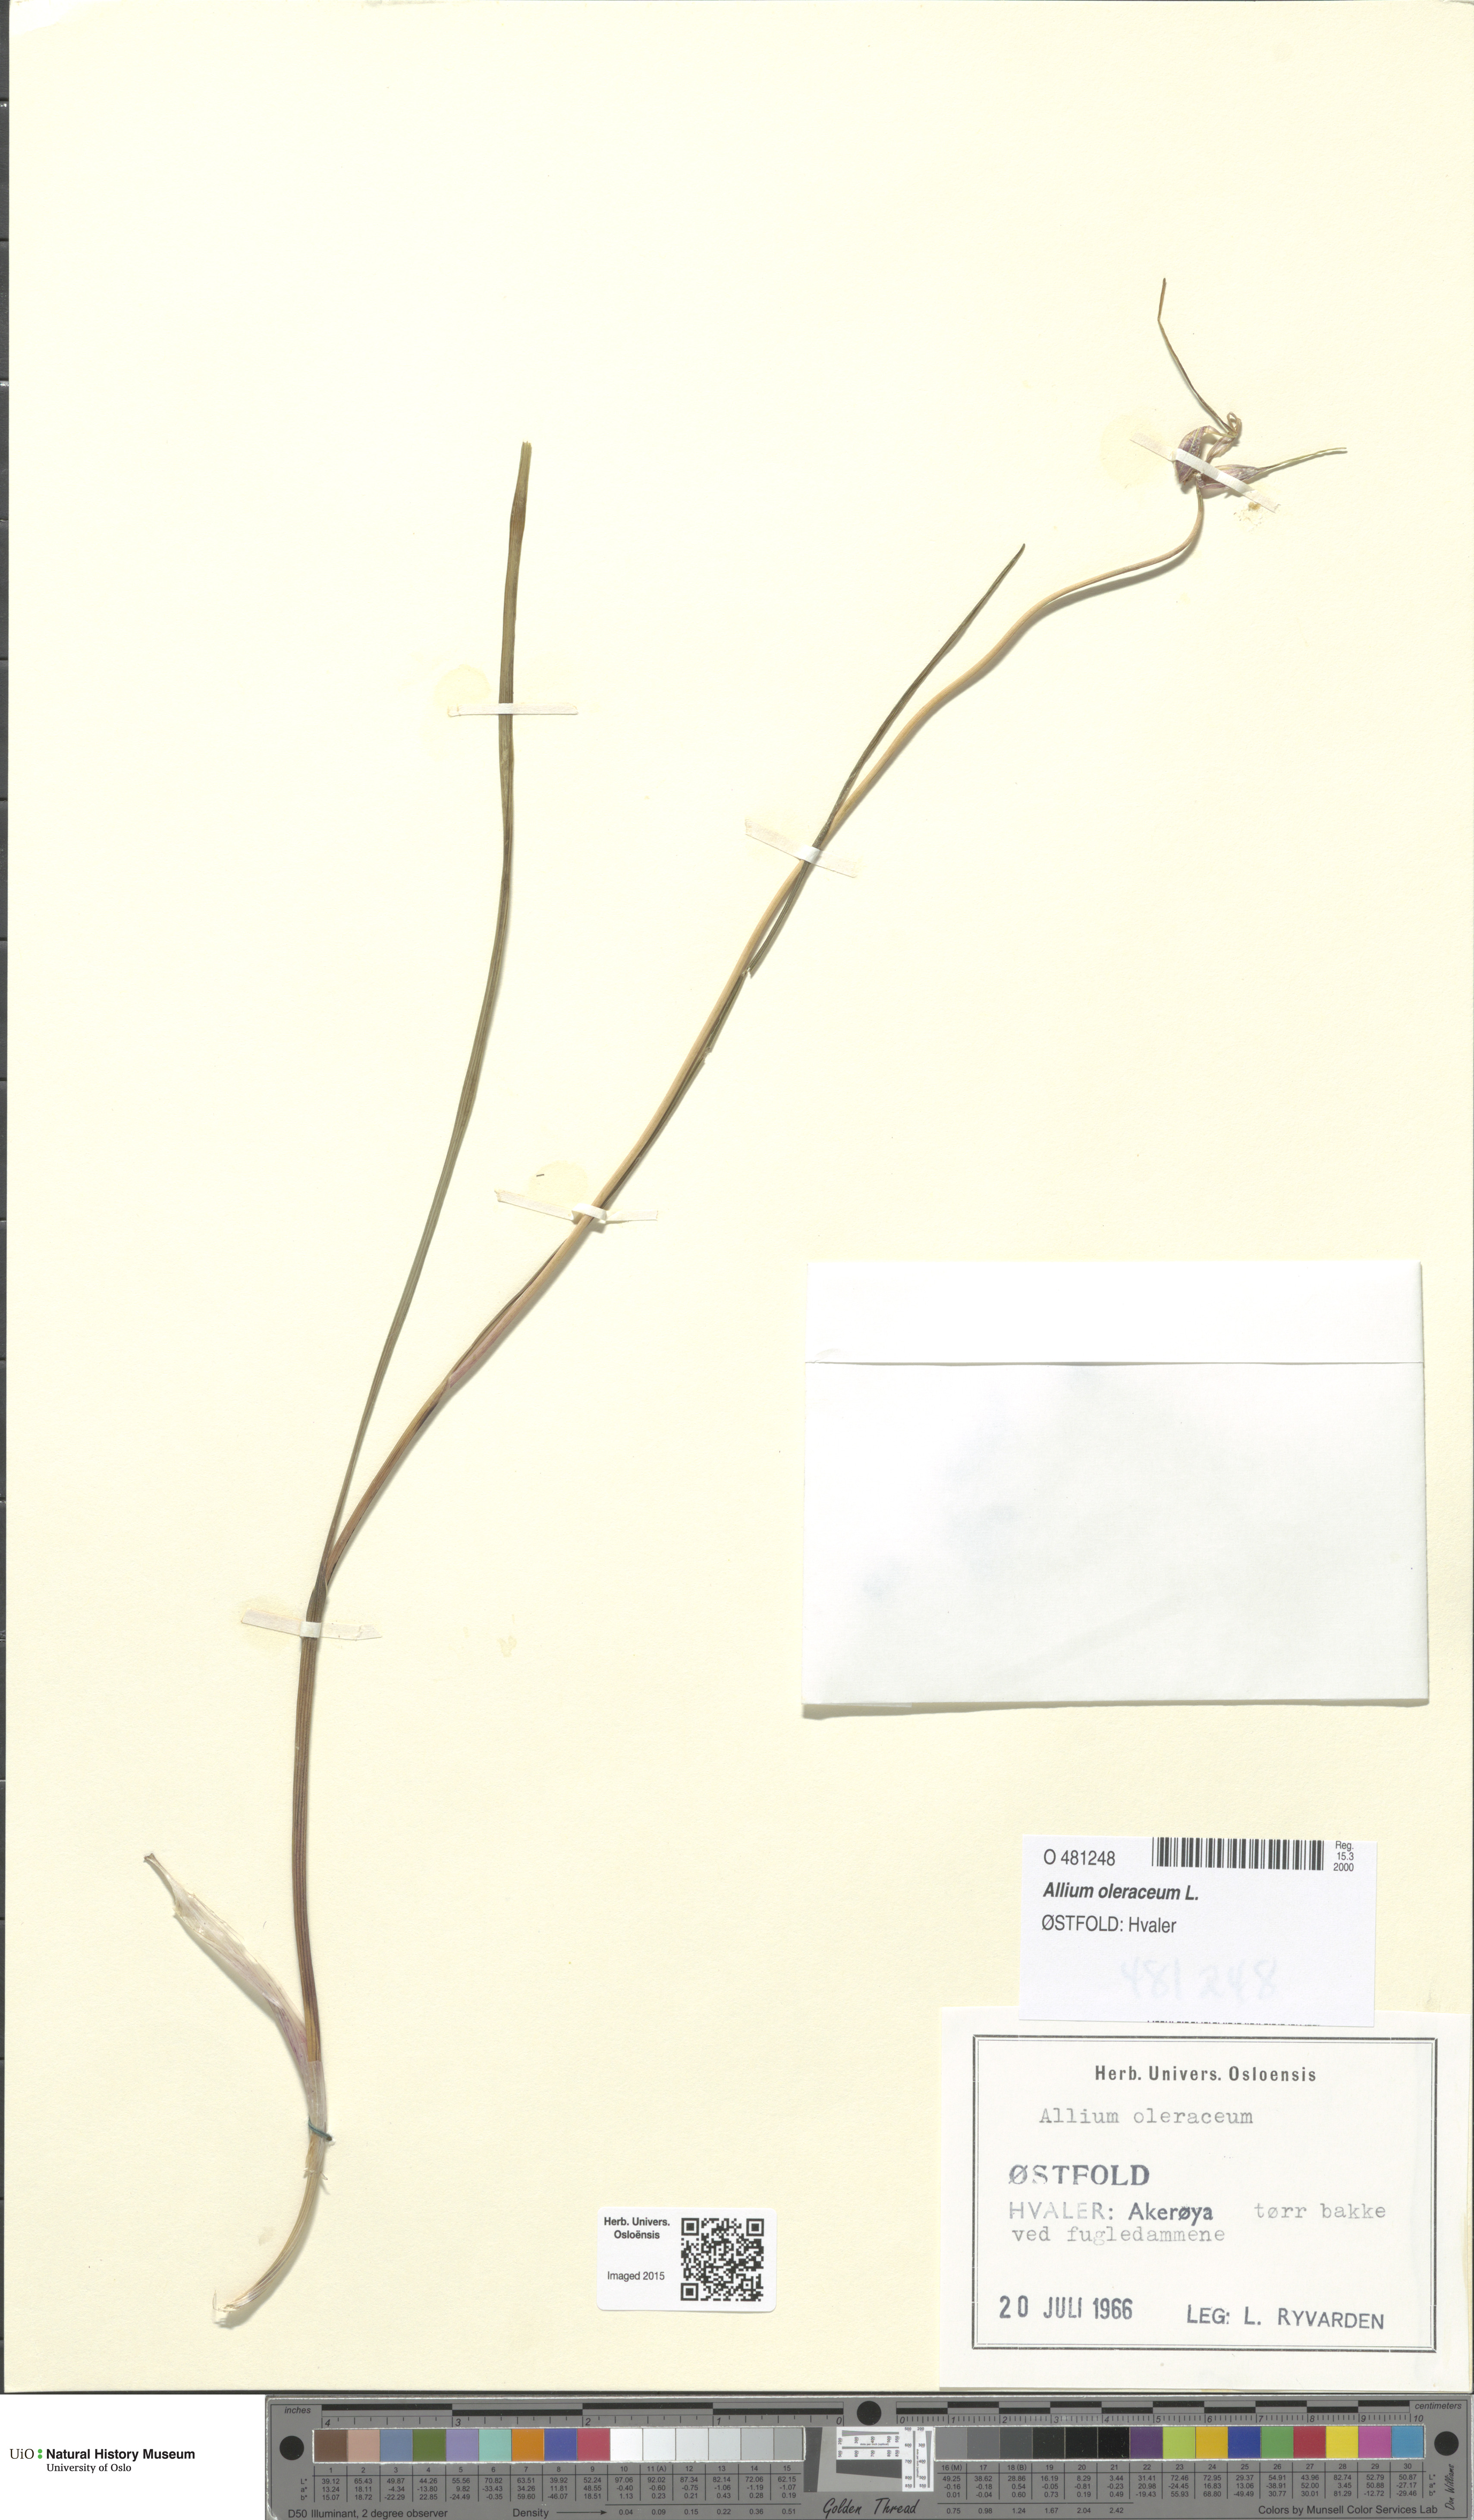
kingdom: Plantae
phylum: Tracheophyta
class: Liliopsida
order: Asparagales
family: Amaryllidaceae
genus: Allium
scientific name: Allium oleraceum
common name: Field garlic
